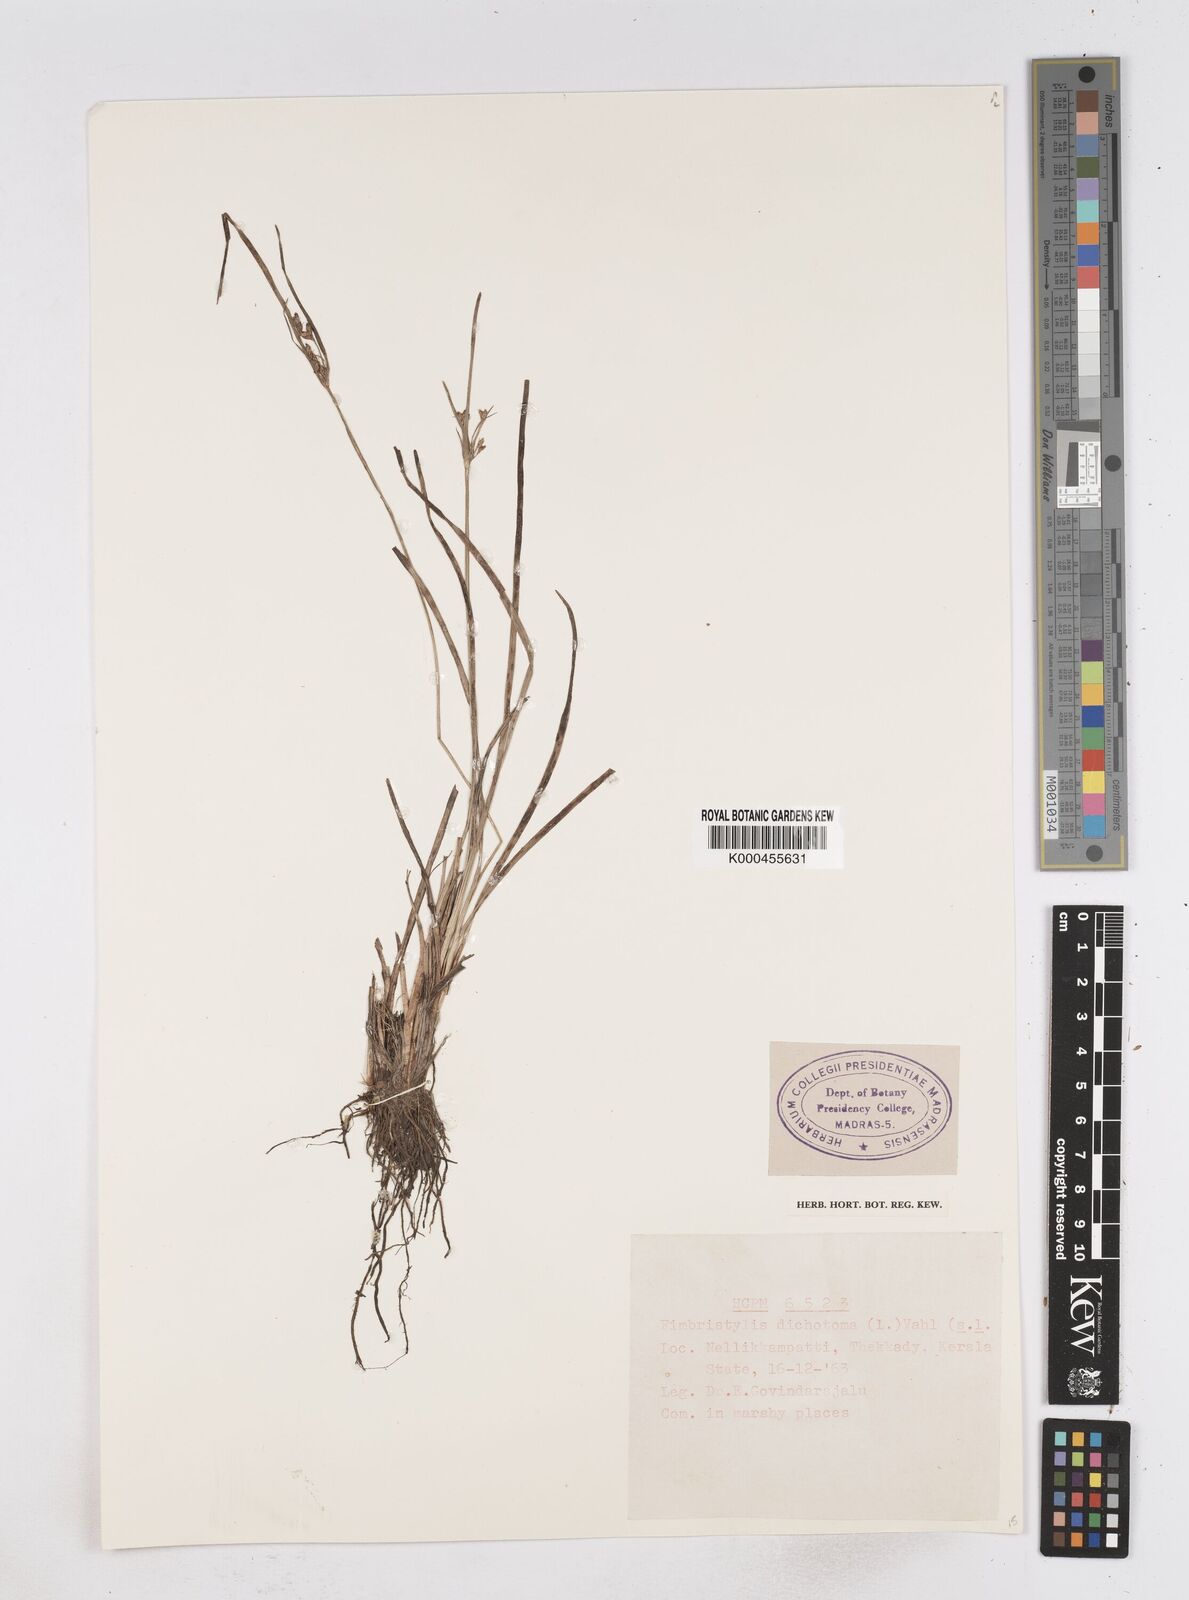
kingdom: Plantae
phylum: Tracheophyta
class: Liliopsida
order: Poales
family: Cyperaceae
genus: Fimbristylis
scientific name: Fimbristylis dichotoma
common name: Forked fimbry
